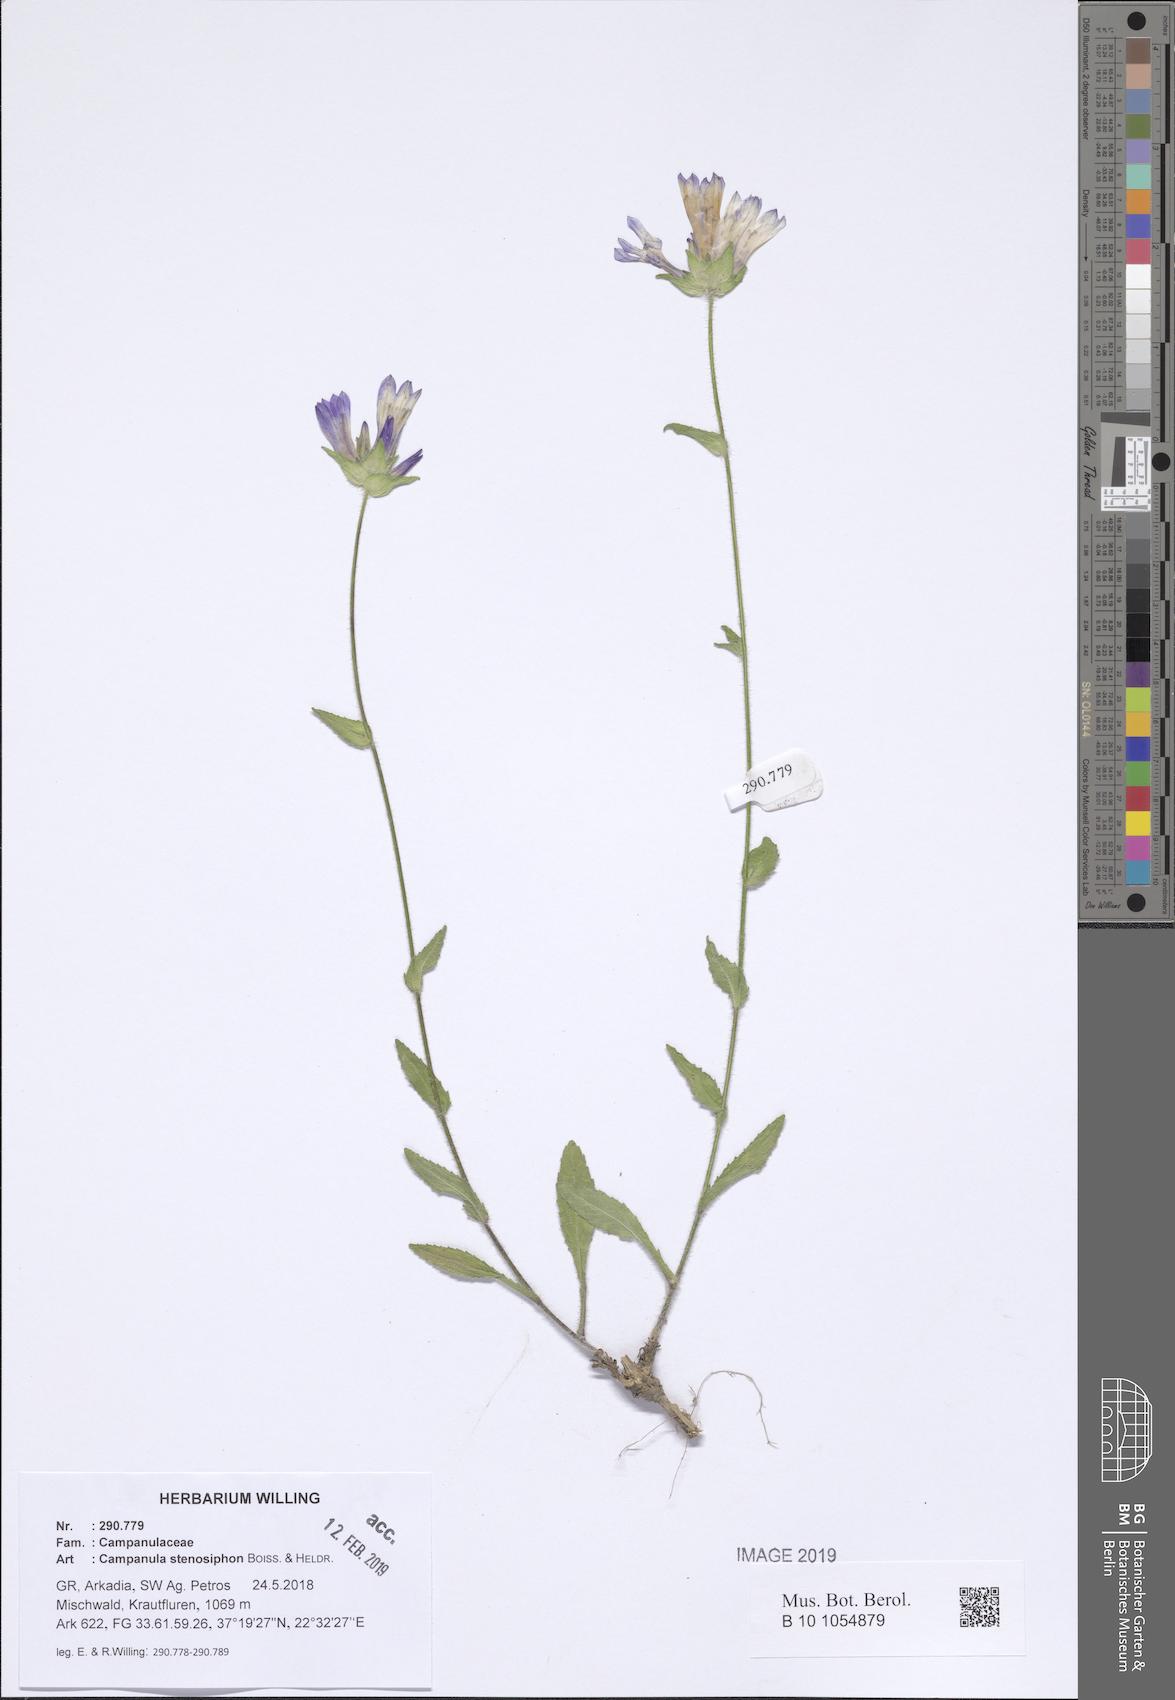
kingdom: Plantae
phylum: Tracheophyta
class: Magnoliopsida
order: Asterales
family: Campanulaceae
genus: Campanula
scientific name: Campanula stenosiphon
